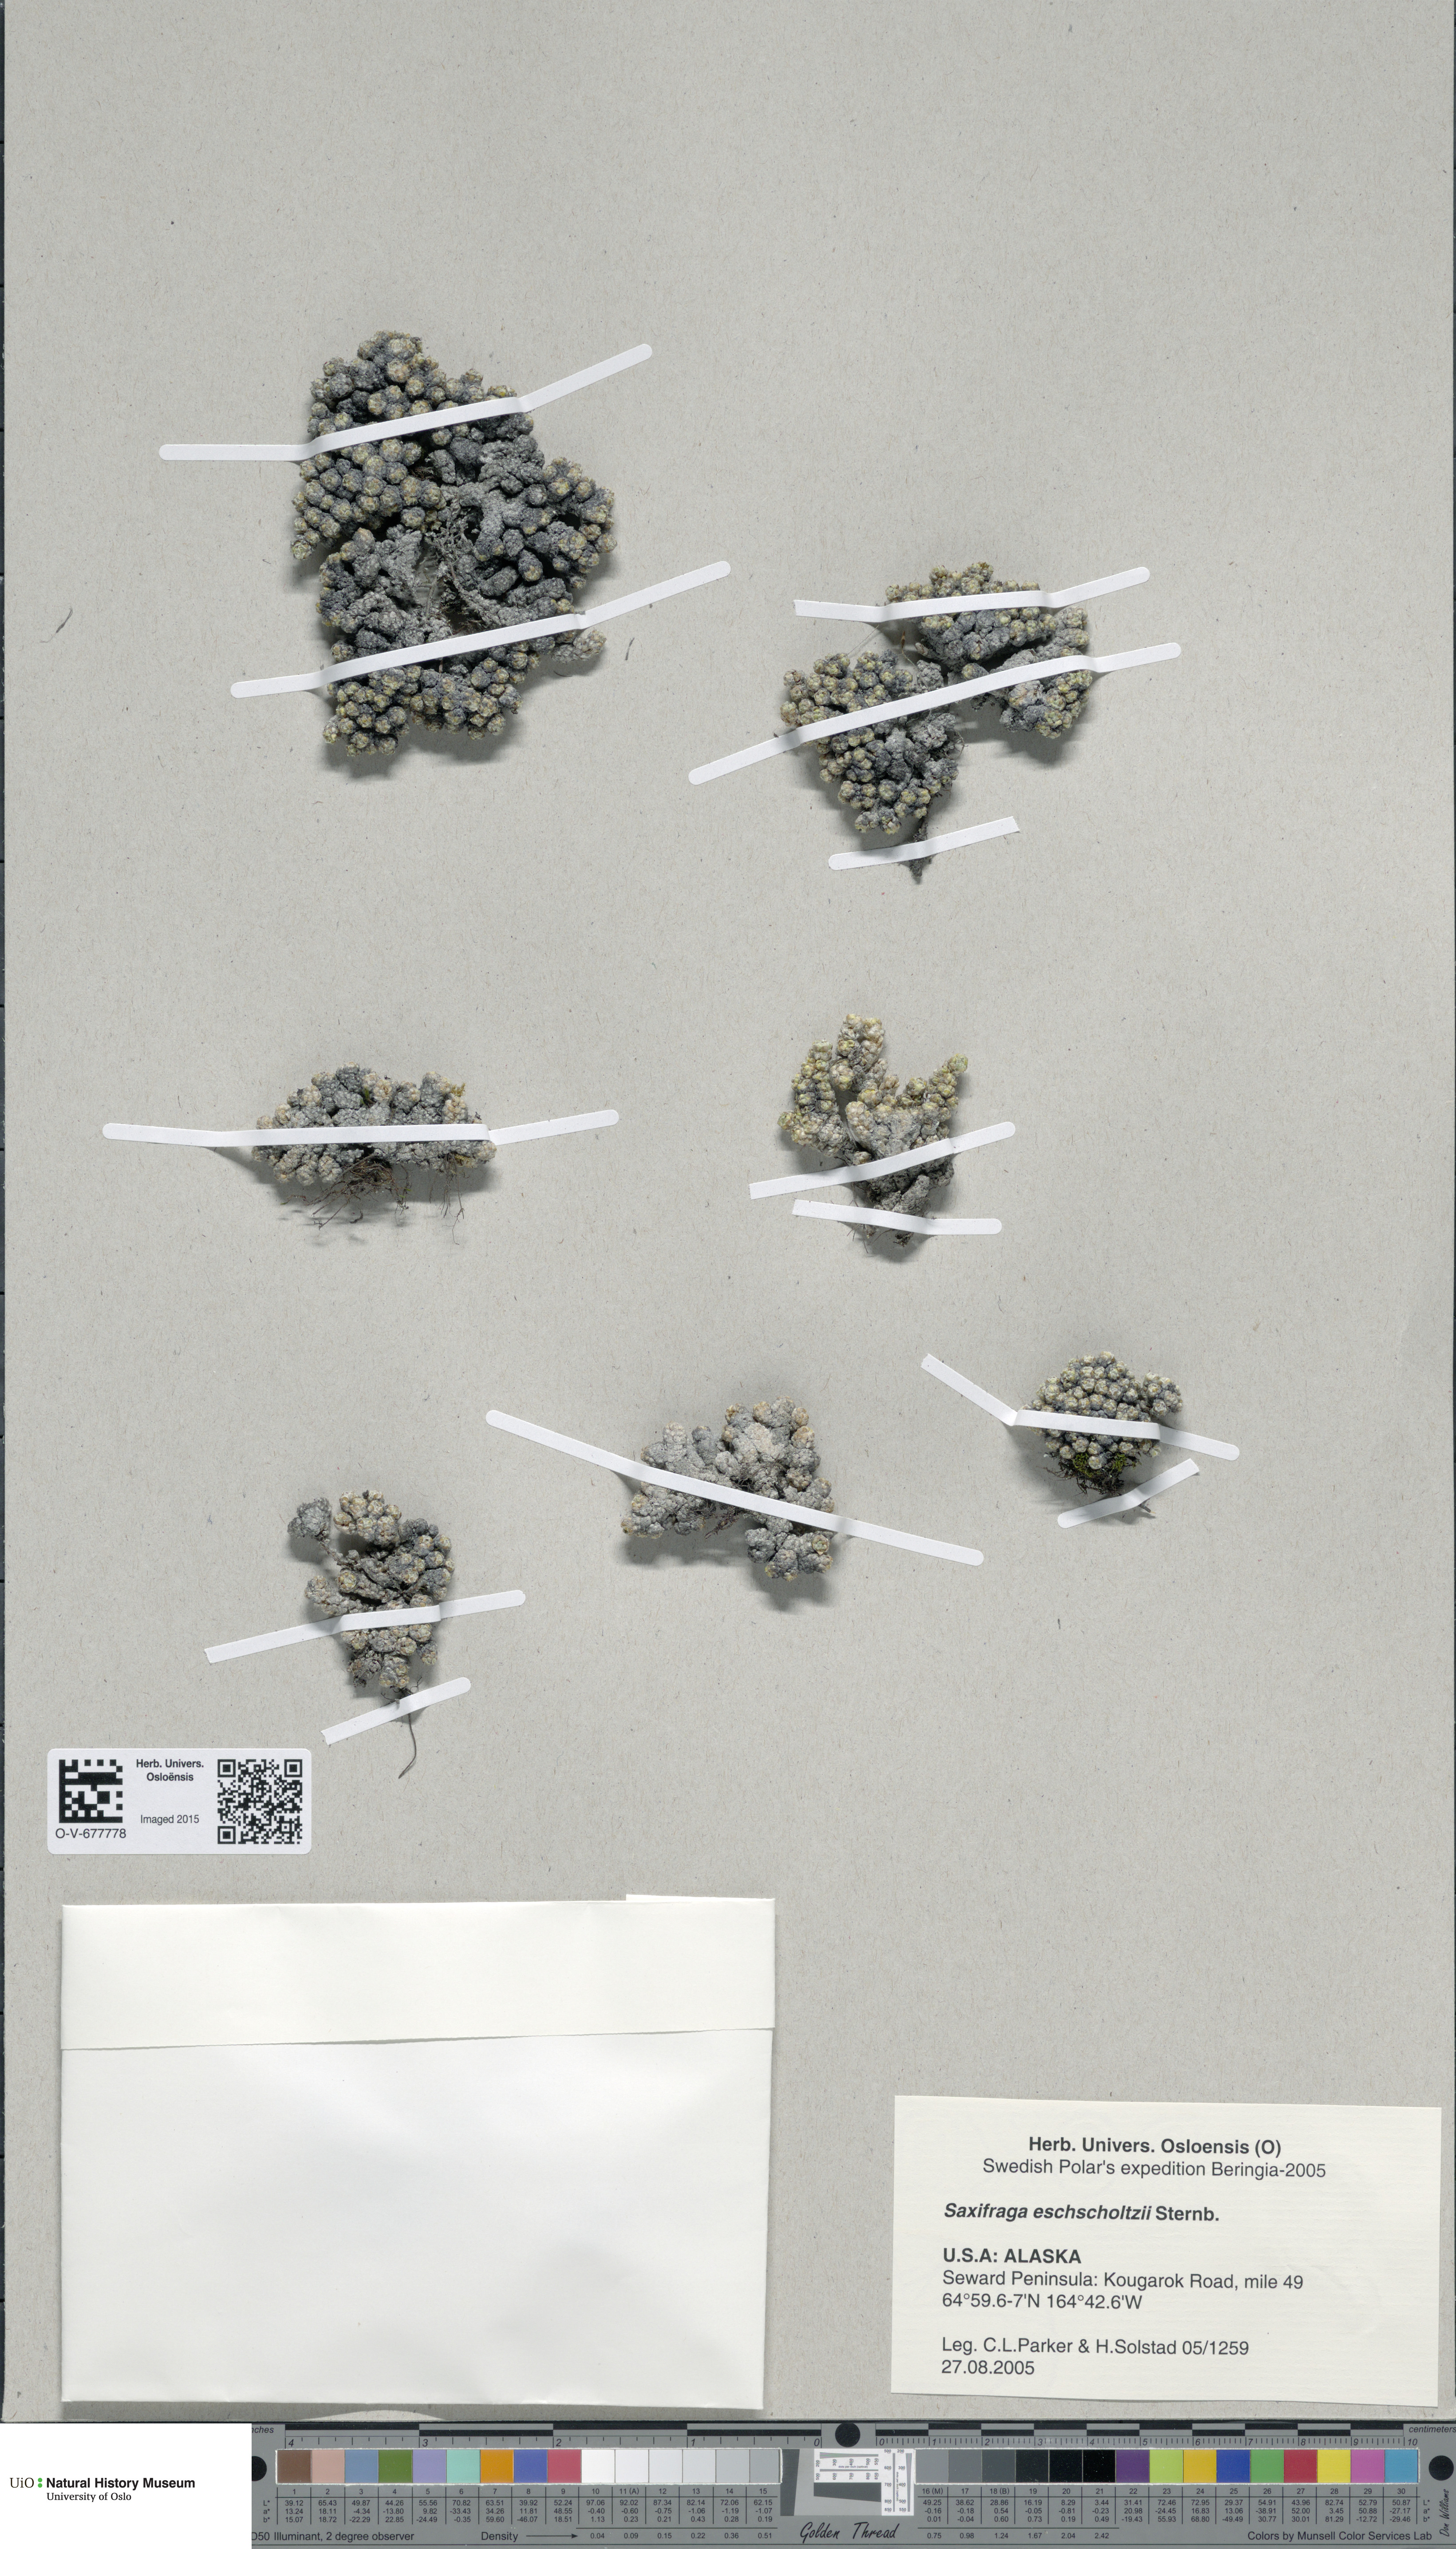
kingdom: Plantae
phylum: Tracheophyta
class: Magnoliopsida
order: Saxifragales
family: Saxifragaceae
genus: Saxifraga
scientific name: Saxifraga eschscholtzii
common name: Eschscholtz's saxifrage
